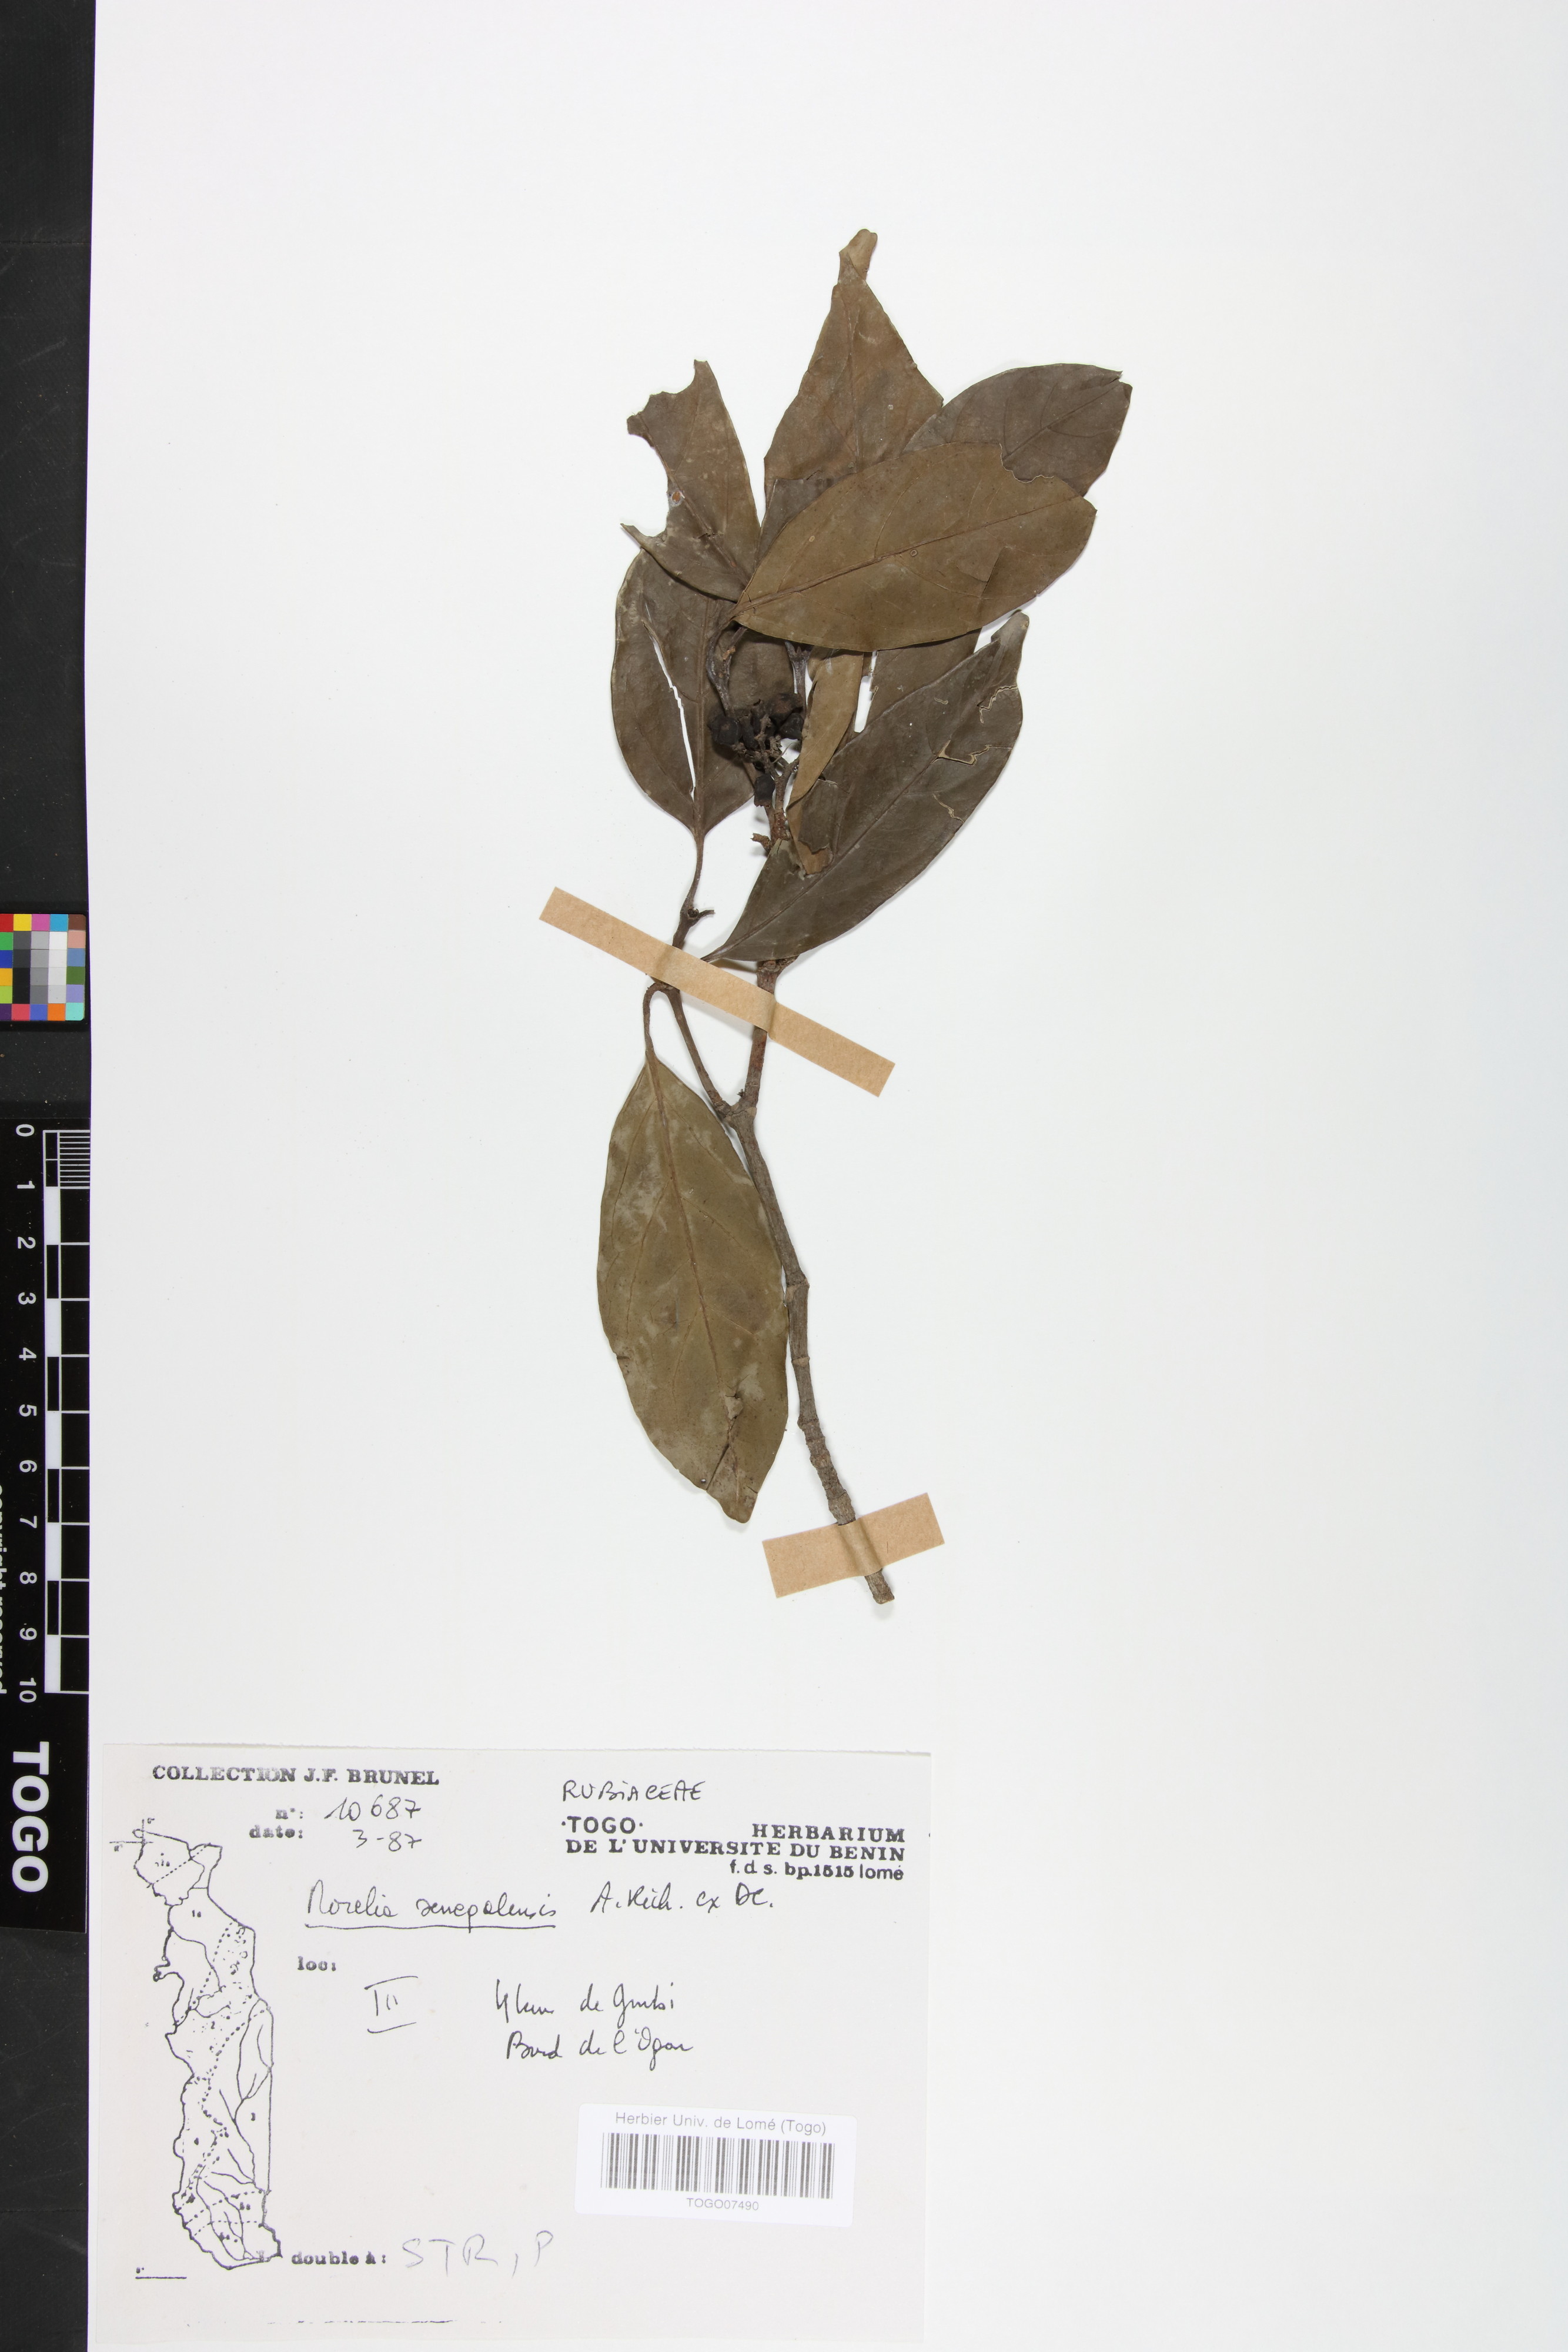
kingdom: Plantae
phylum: Tracheophyta
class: Magnoliopsida
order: Gentianales
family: Rubiaceae
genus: Morelia
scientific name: Morelia senegalensis
